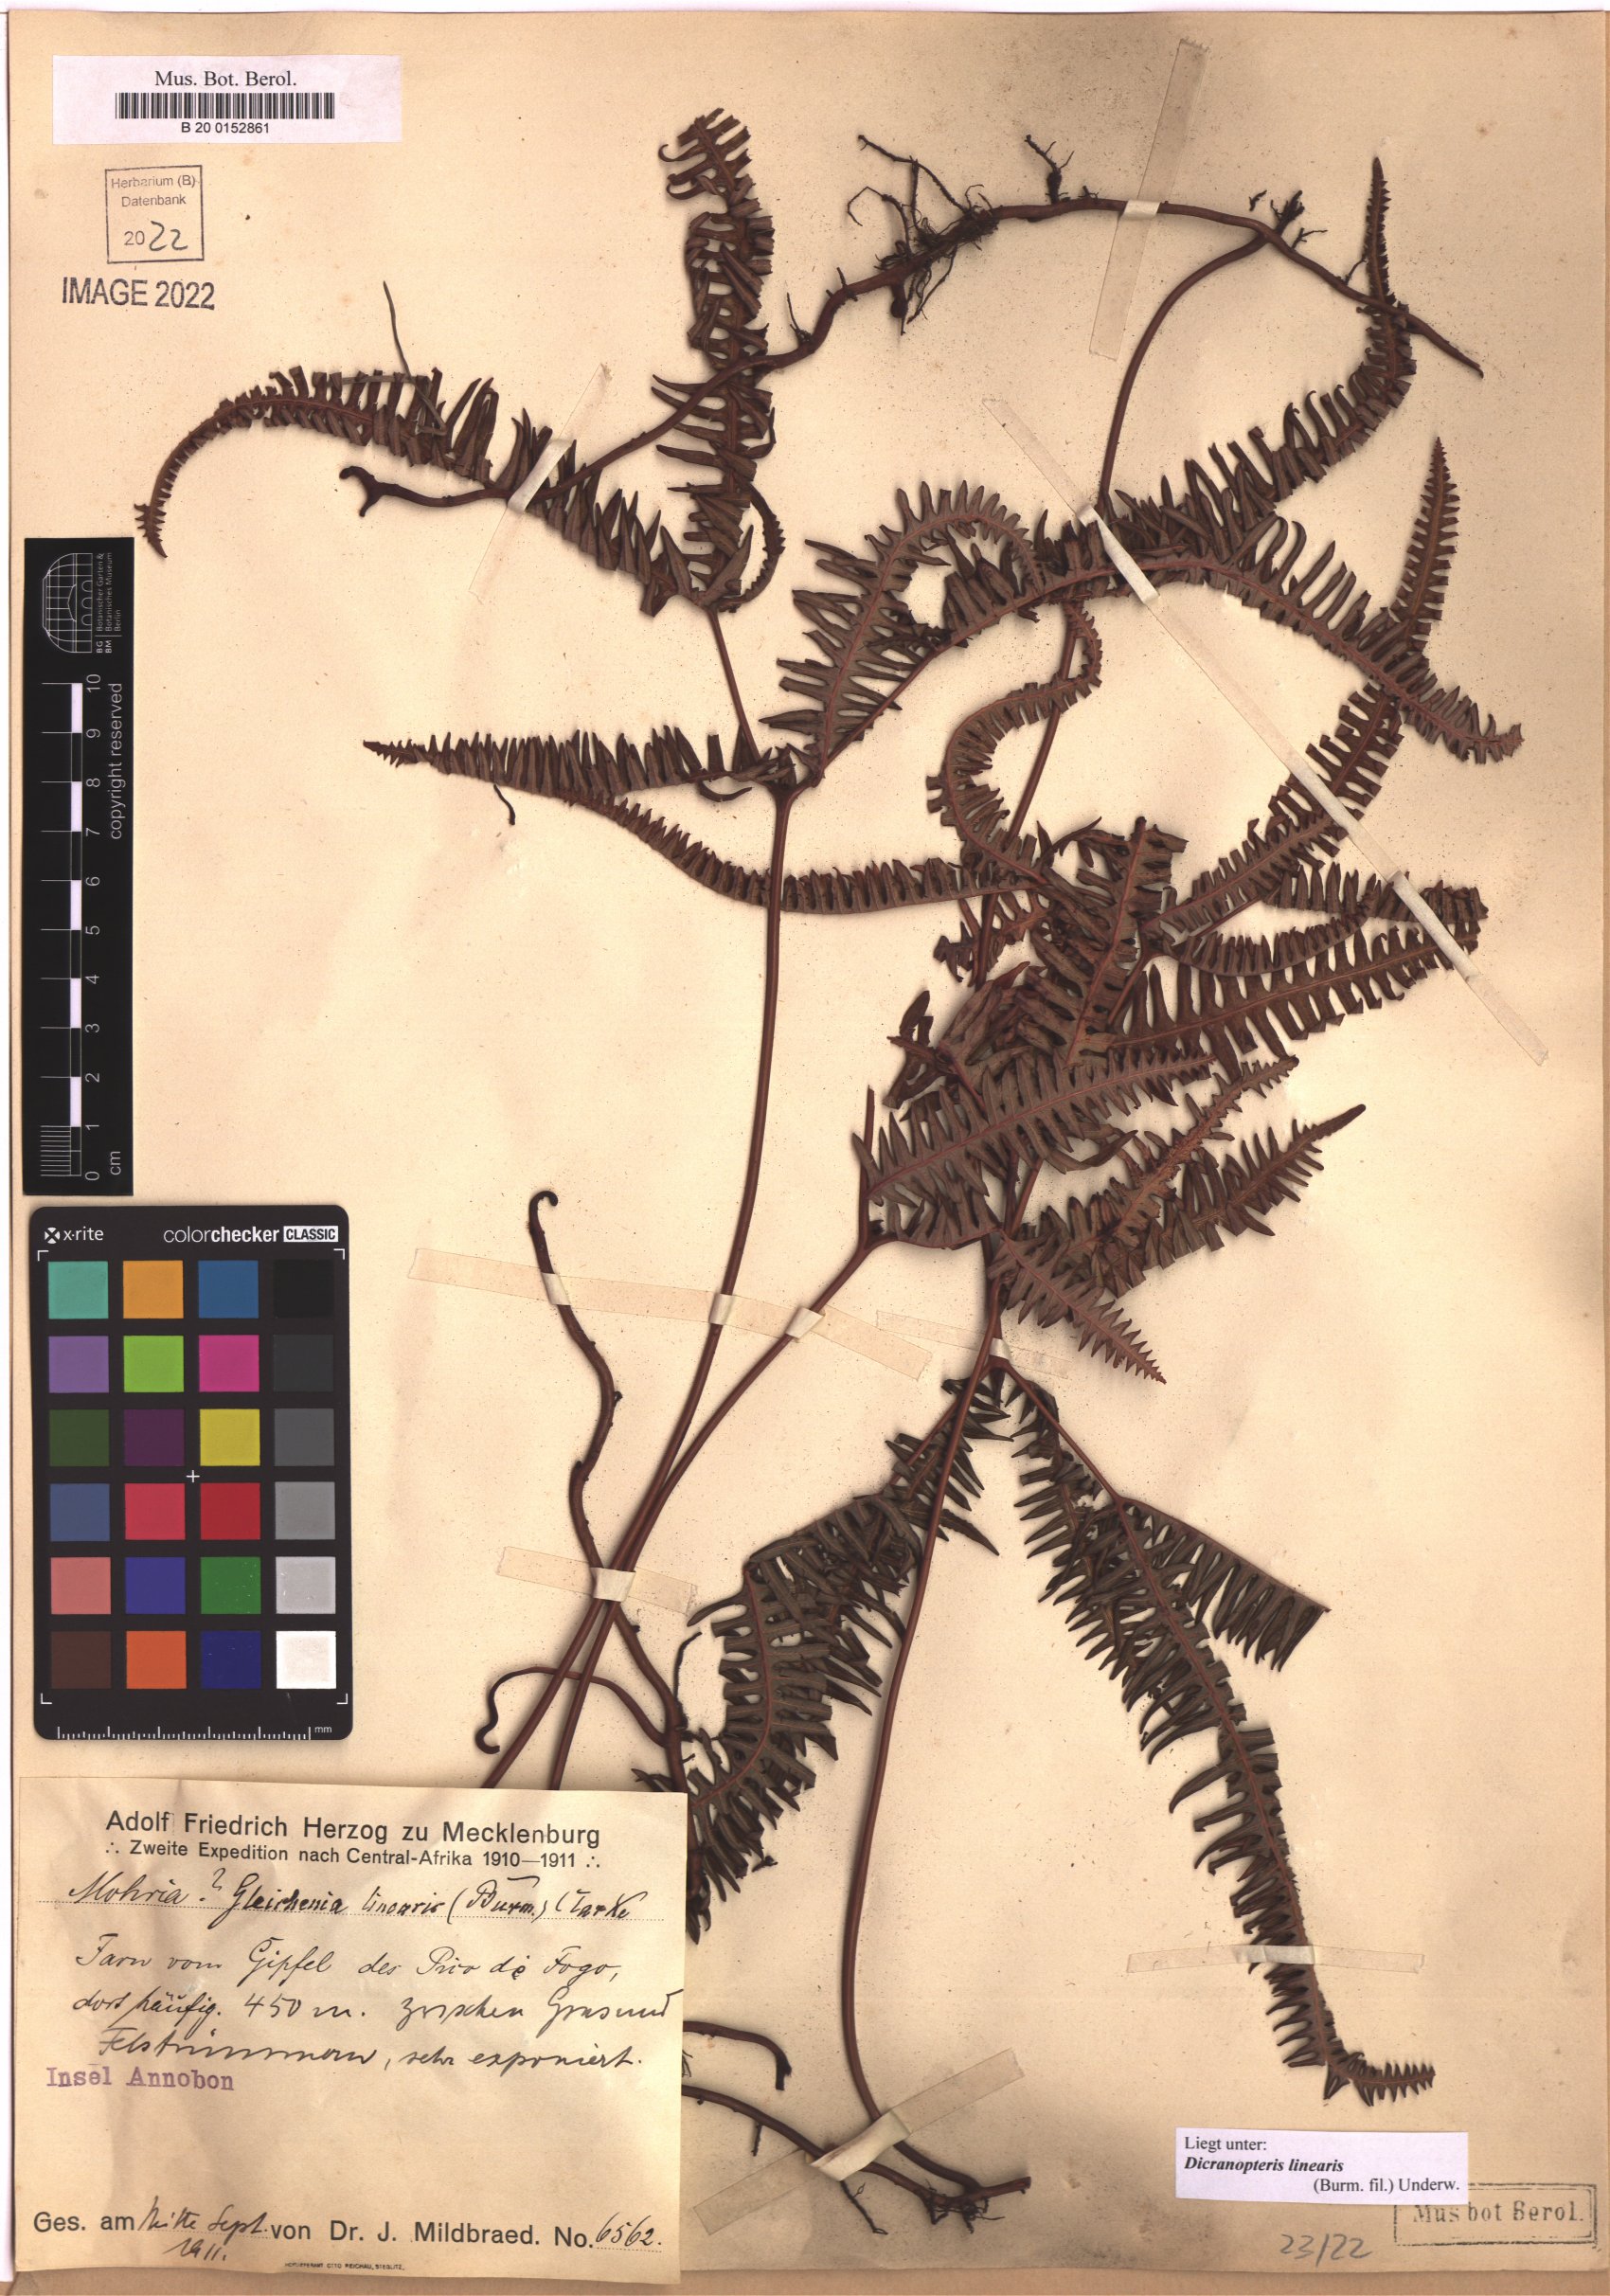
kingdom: Plantae
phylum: Tracheophyta
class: Polypodiopsida
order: Gleicheniales
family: Gleicheniaceae
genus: Dicranopteris
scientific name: Dicranopteris linearis
